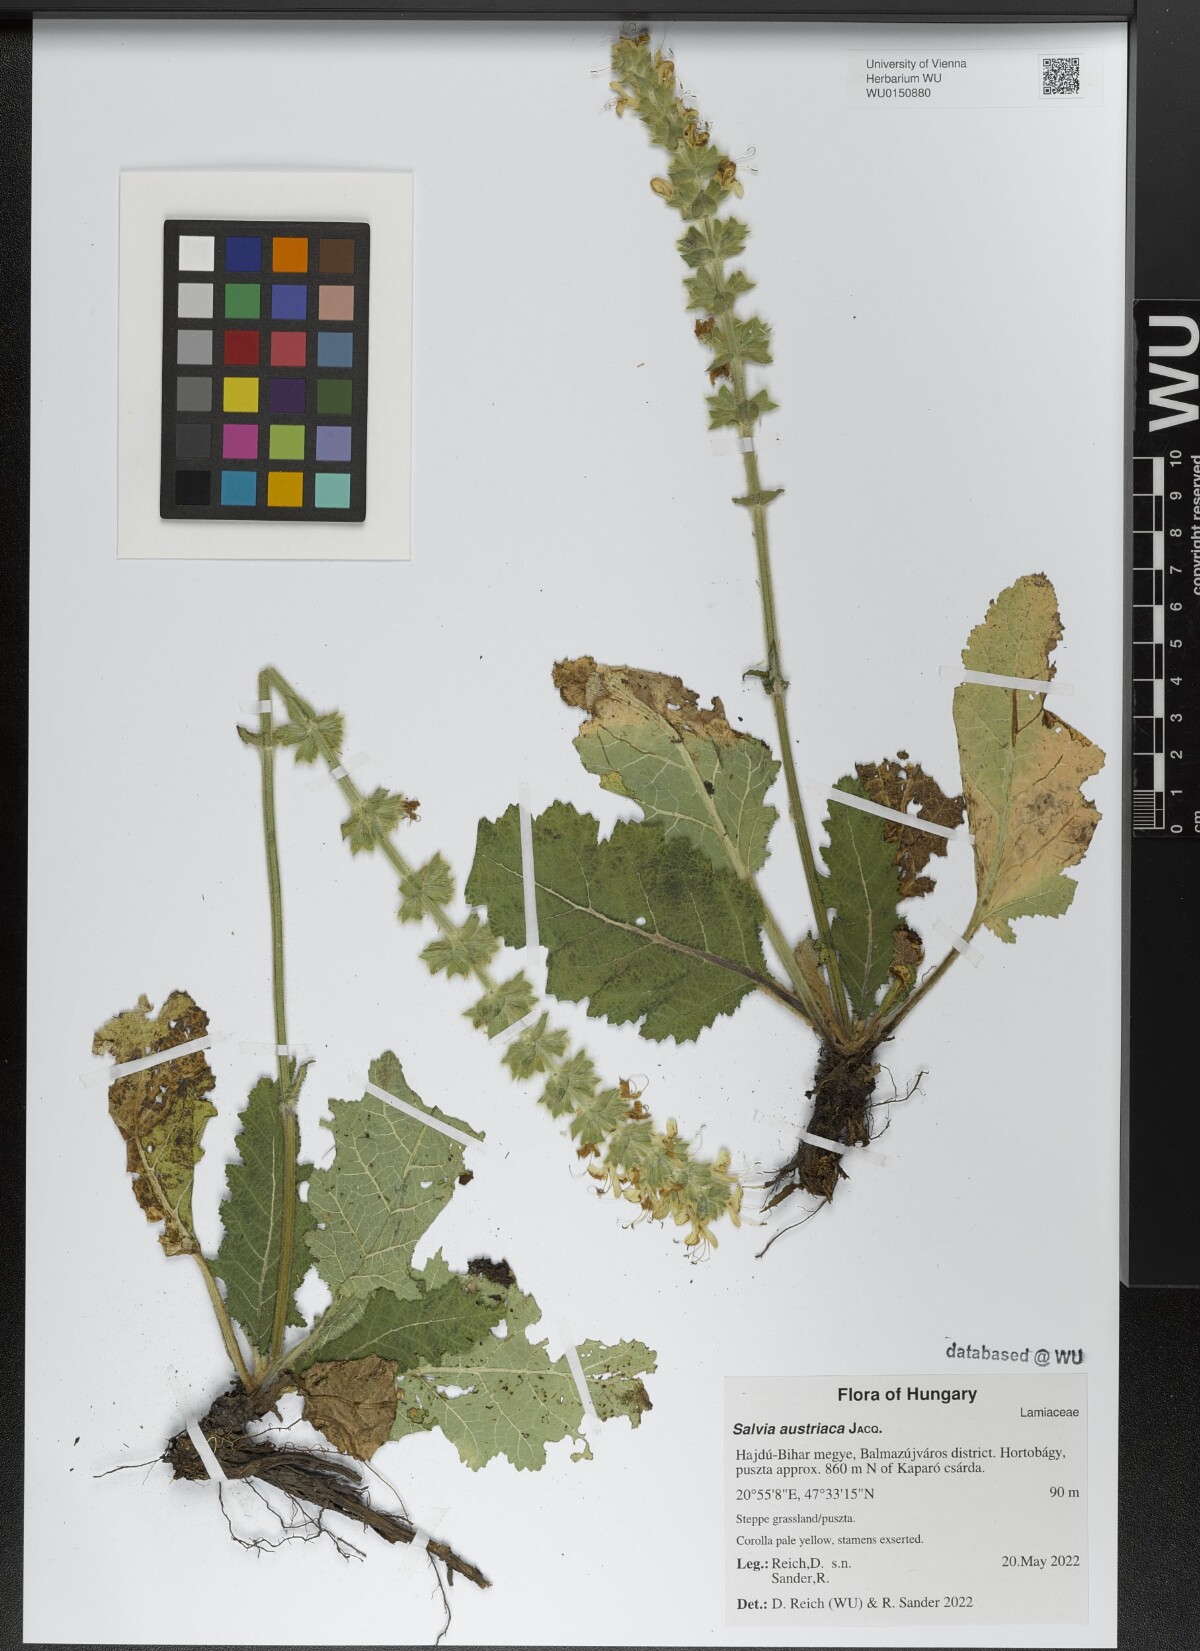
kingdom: Plantae
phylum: Tracheophyta
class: Magnoliopsida
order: Lamiales
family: Lamiaceae
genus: Salvia
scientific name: Salvia austriaca
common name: Austrian sage
